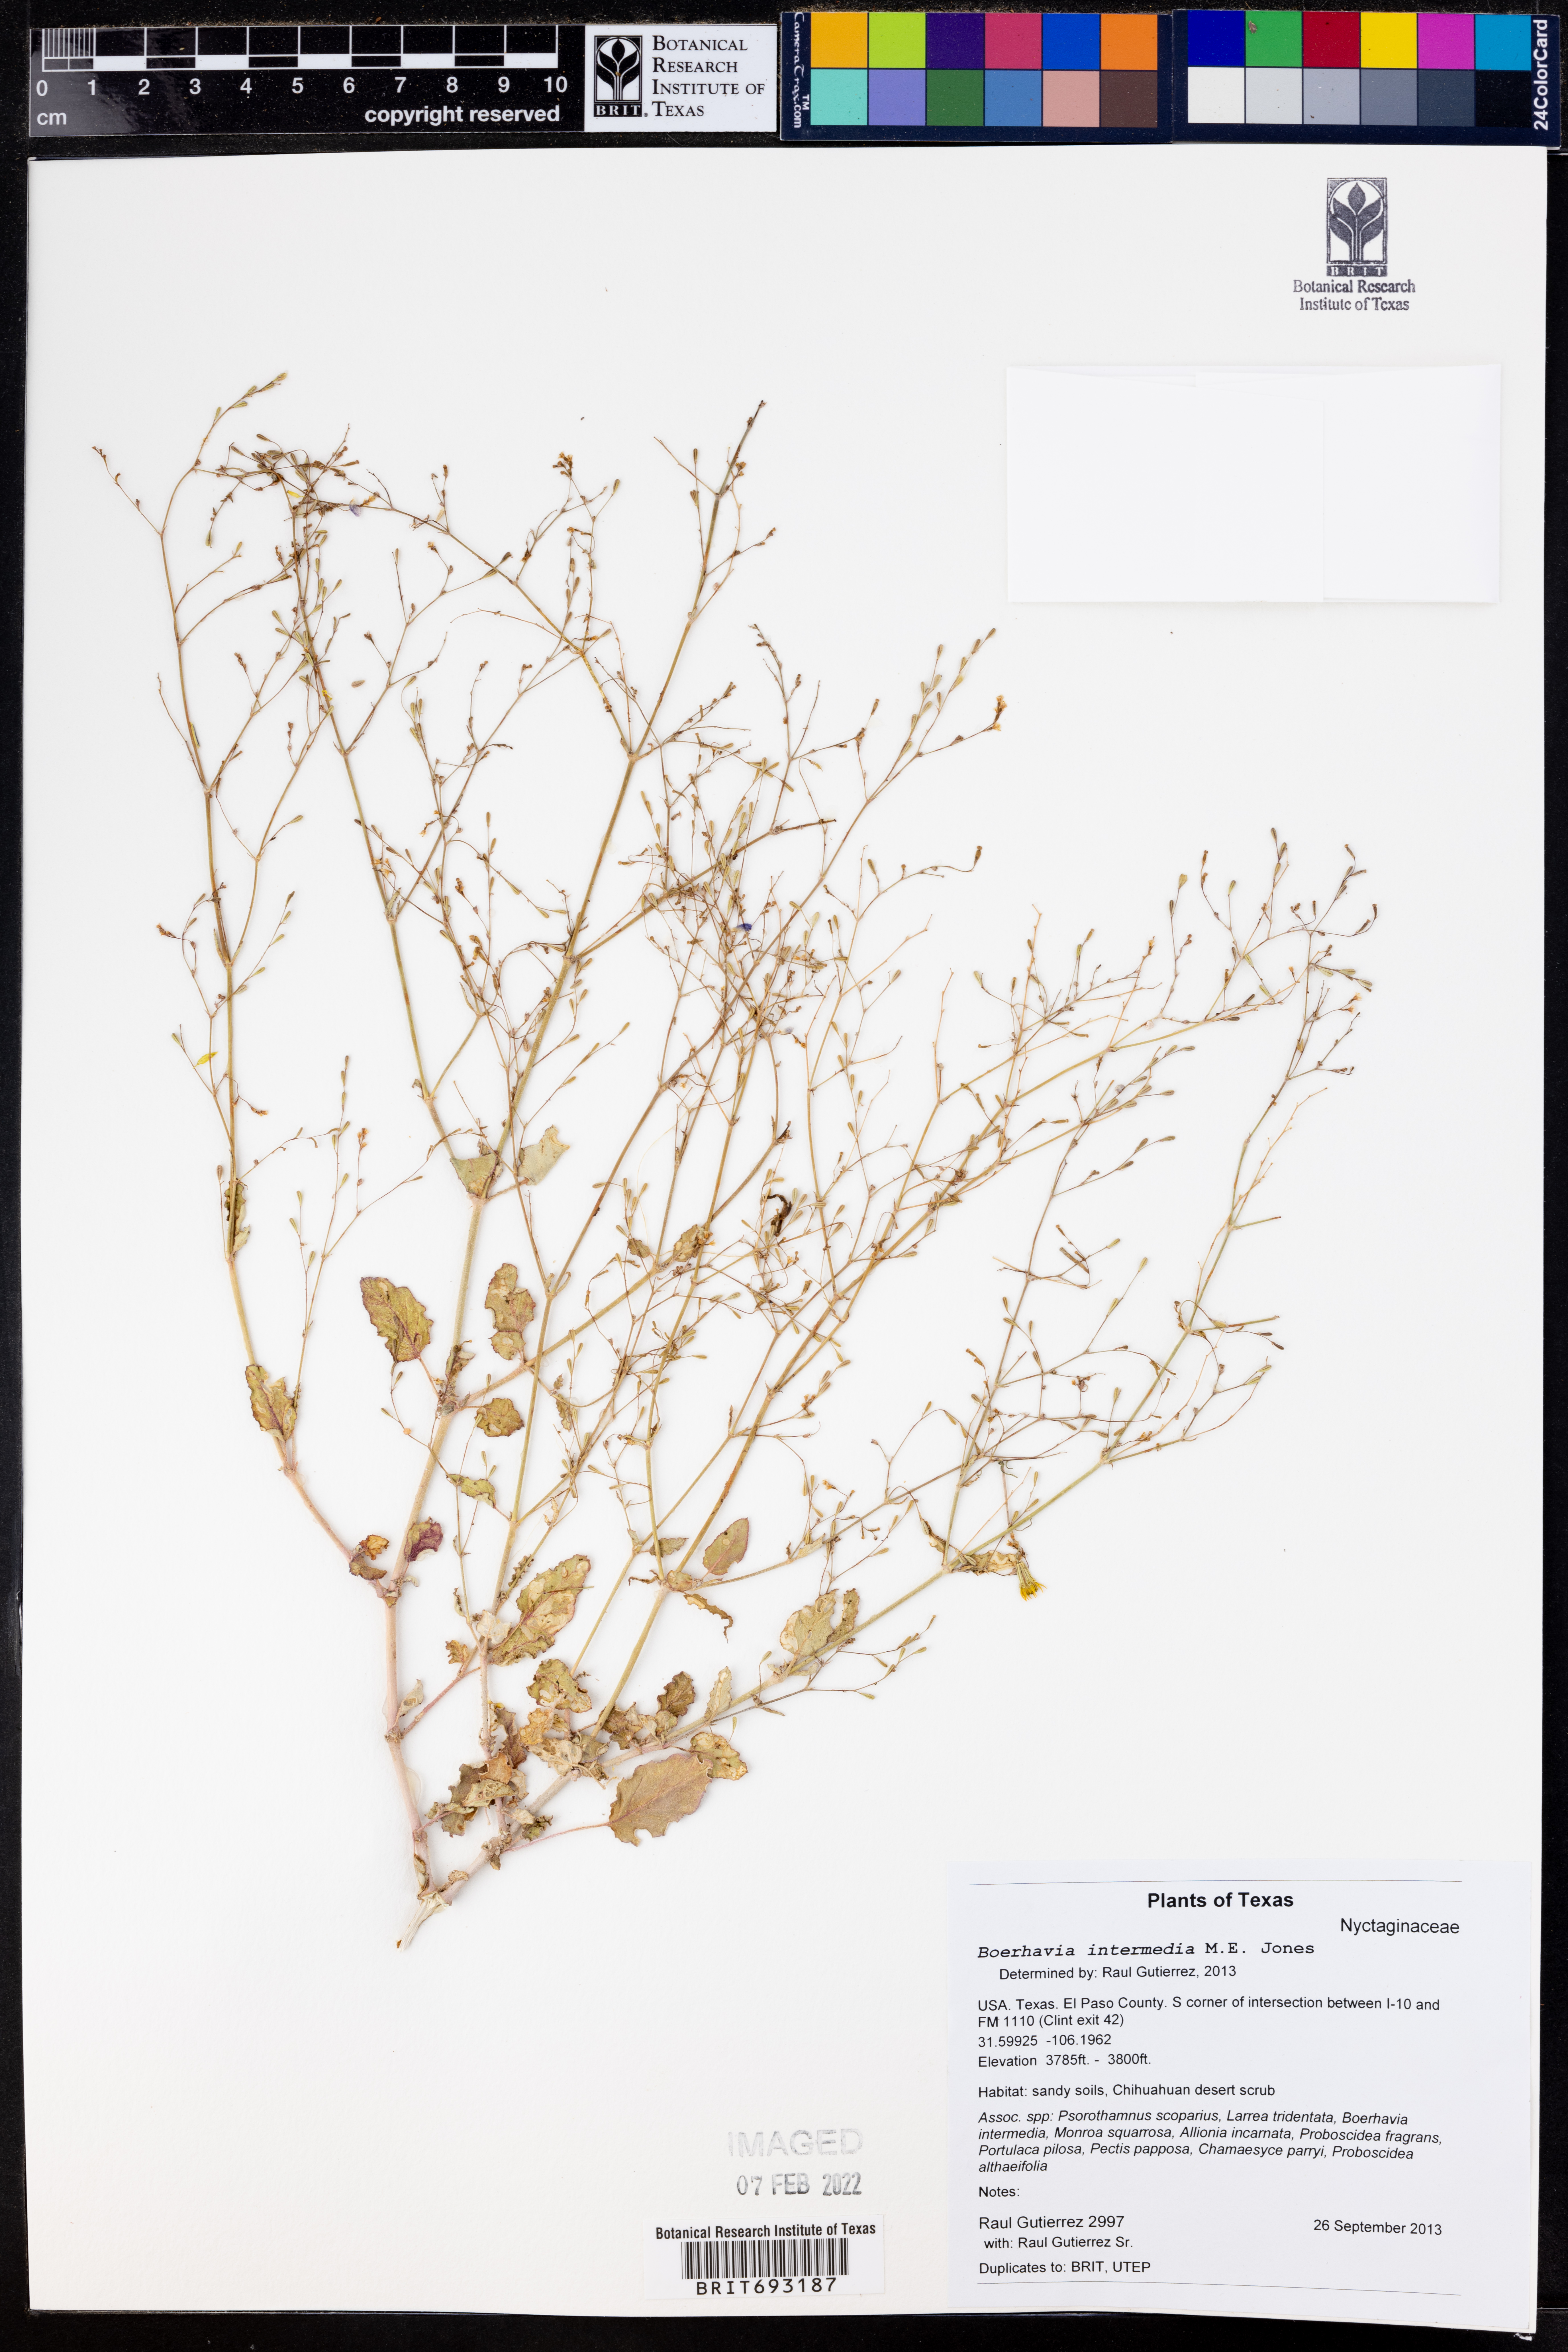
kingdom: Plantae
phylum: Tracheophyta
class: Magnoliopsida
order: Caryophyllales
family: Nyctaginaceae
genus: Boerhavia
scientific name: Boerhavia triquetra
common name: Creeping sticky-stem
